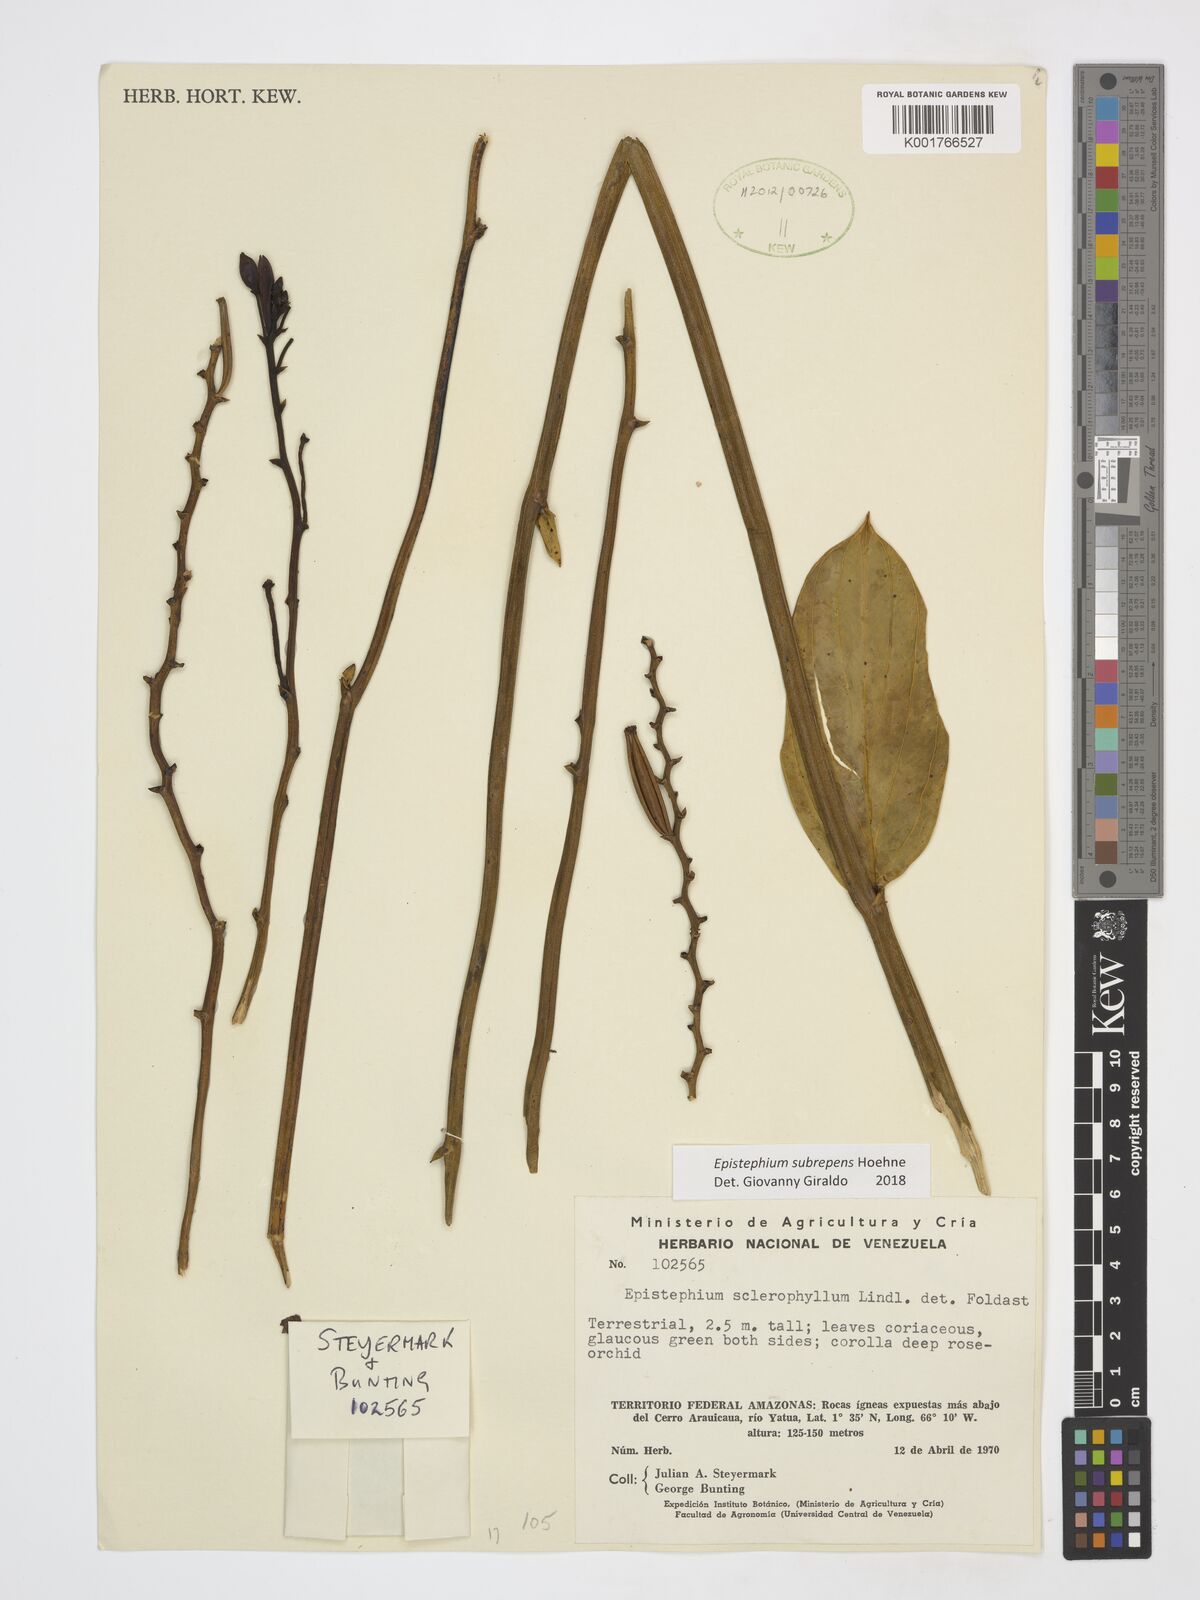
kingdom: Plantae
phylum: Tracheophyta
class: Liliopsida
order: Asparagales
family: Orchidaceae
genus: Epistephium
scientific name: Epistephium subrepens
